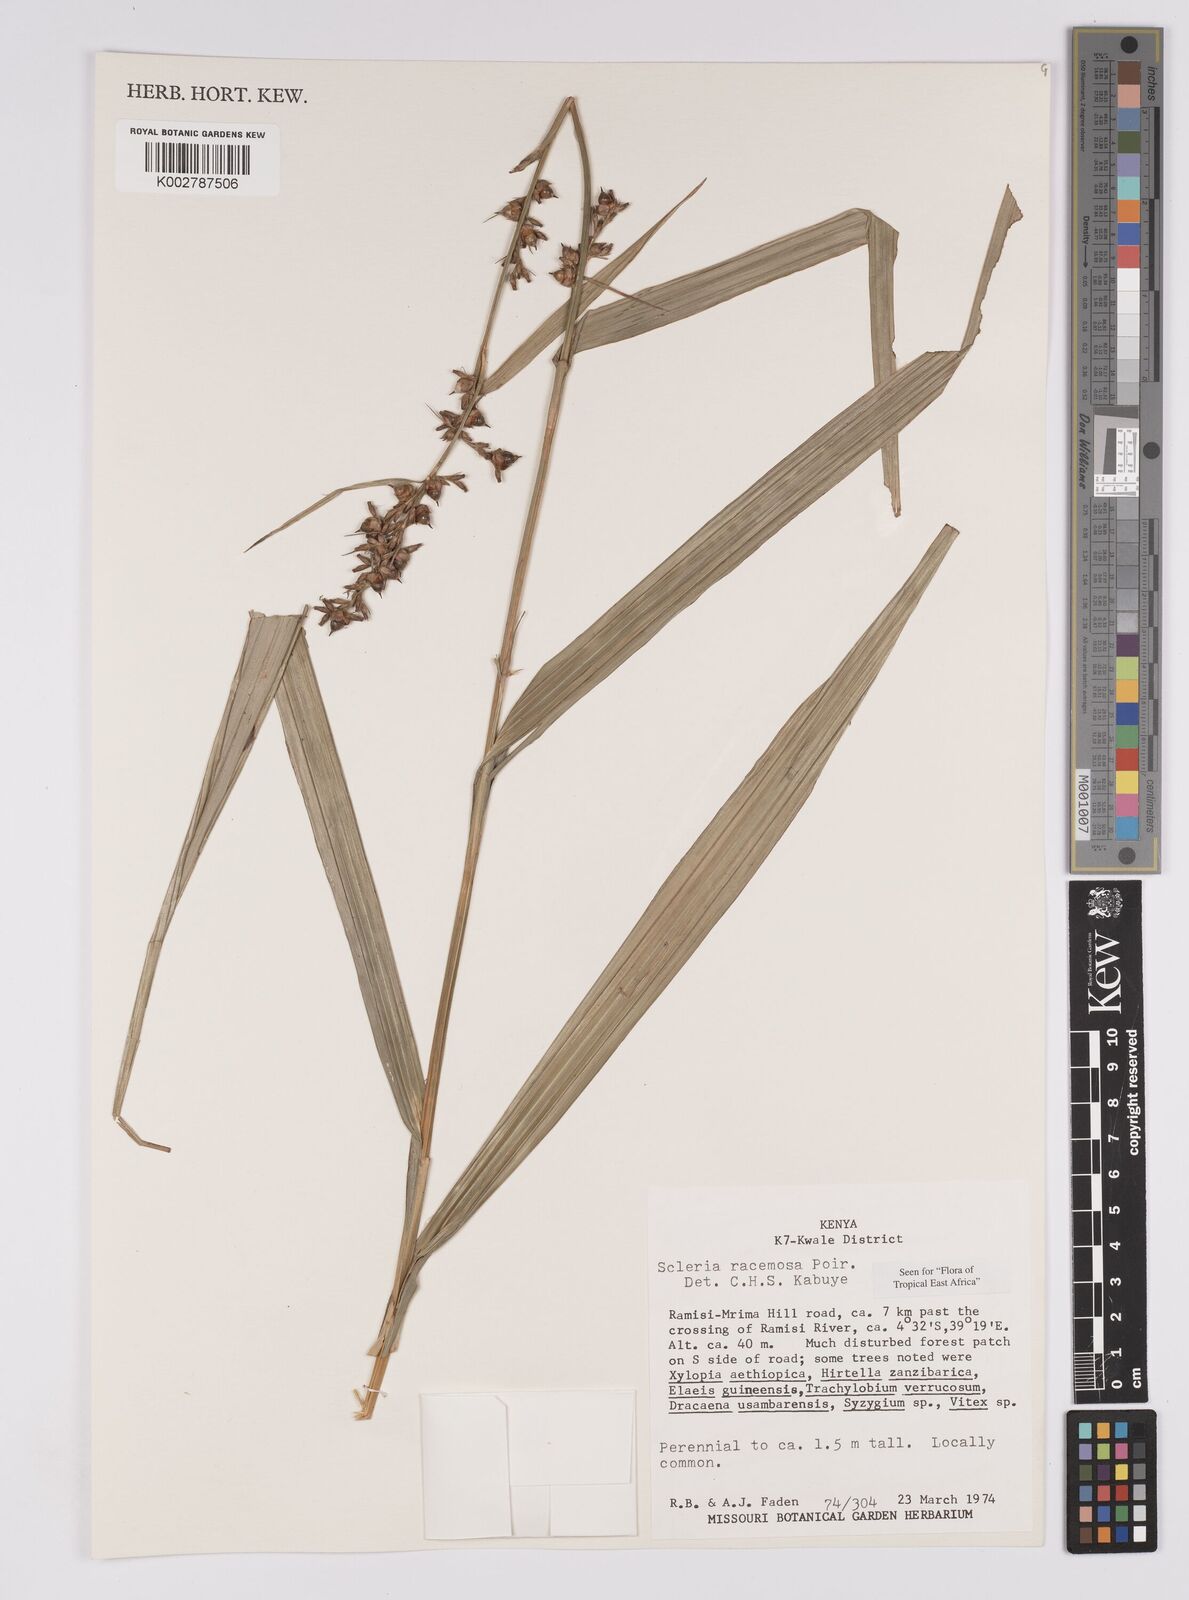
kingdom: Plantae
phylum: Tracheophyta
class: Liliopsida
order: Poales
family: Cyperaceae
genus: Scleria
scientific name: Scleria racemosa
